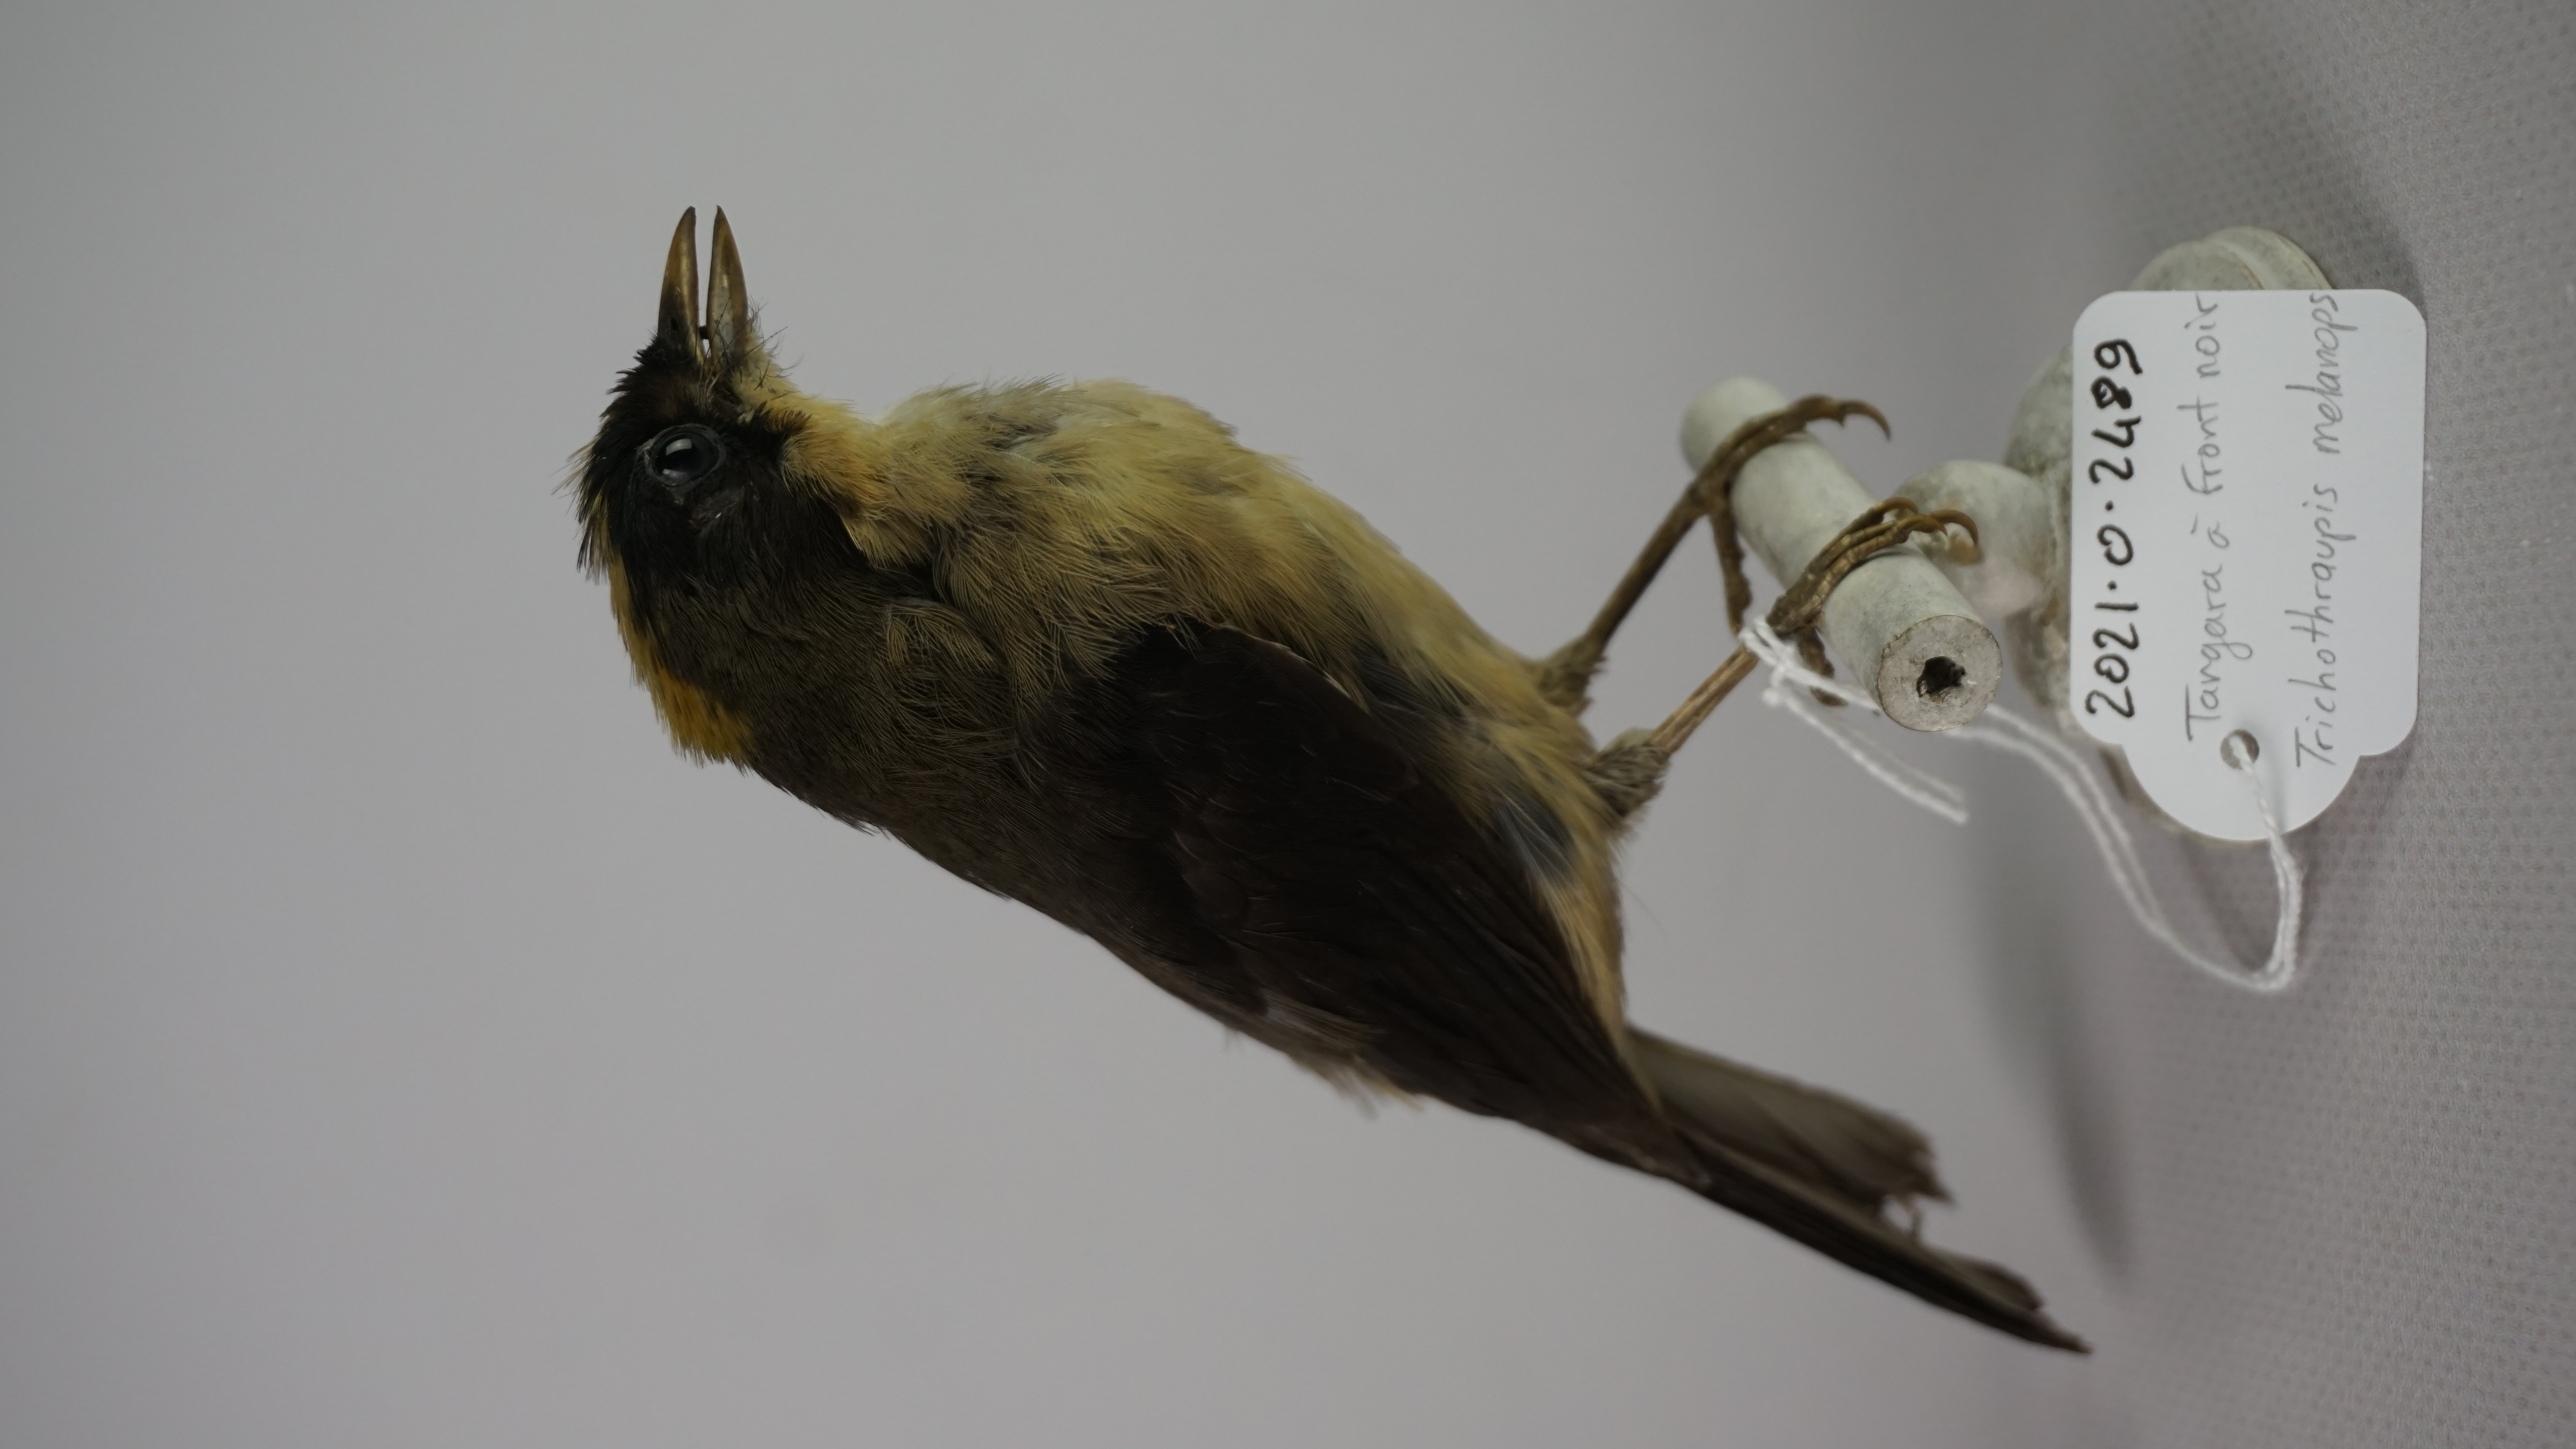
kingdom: Animalia
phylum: Chordata
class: Aves
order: Passeriformes
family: Thraupidae
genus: Trichothraupis
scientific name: Trichothraupis melanops
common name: Black-goggled tanager
